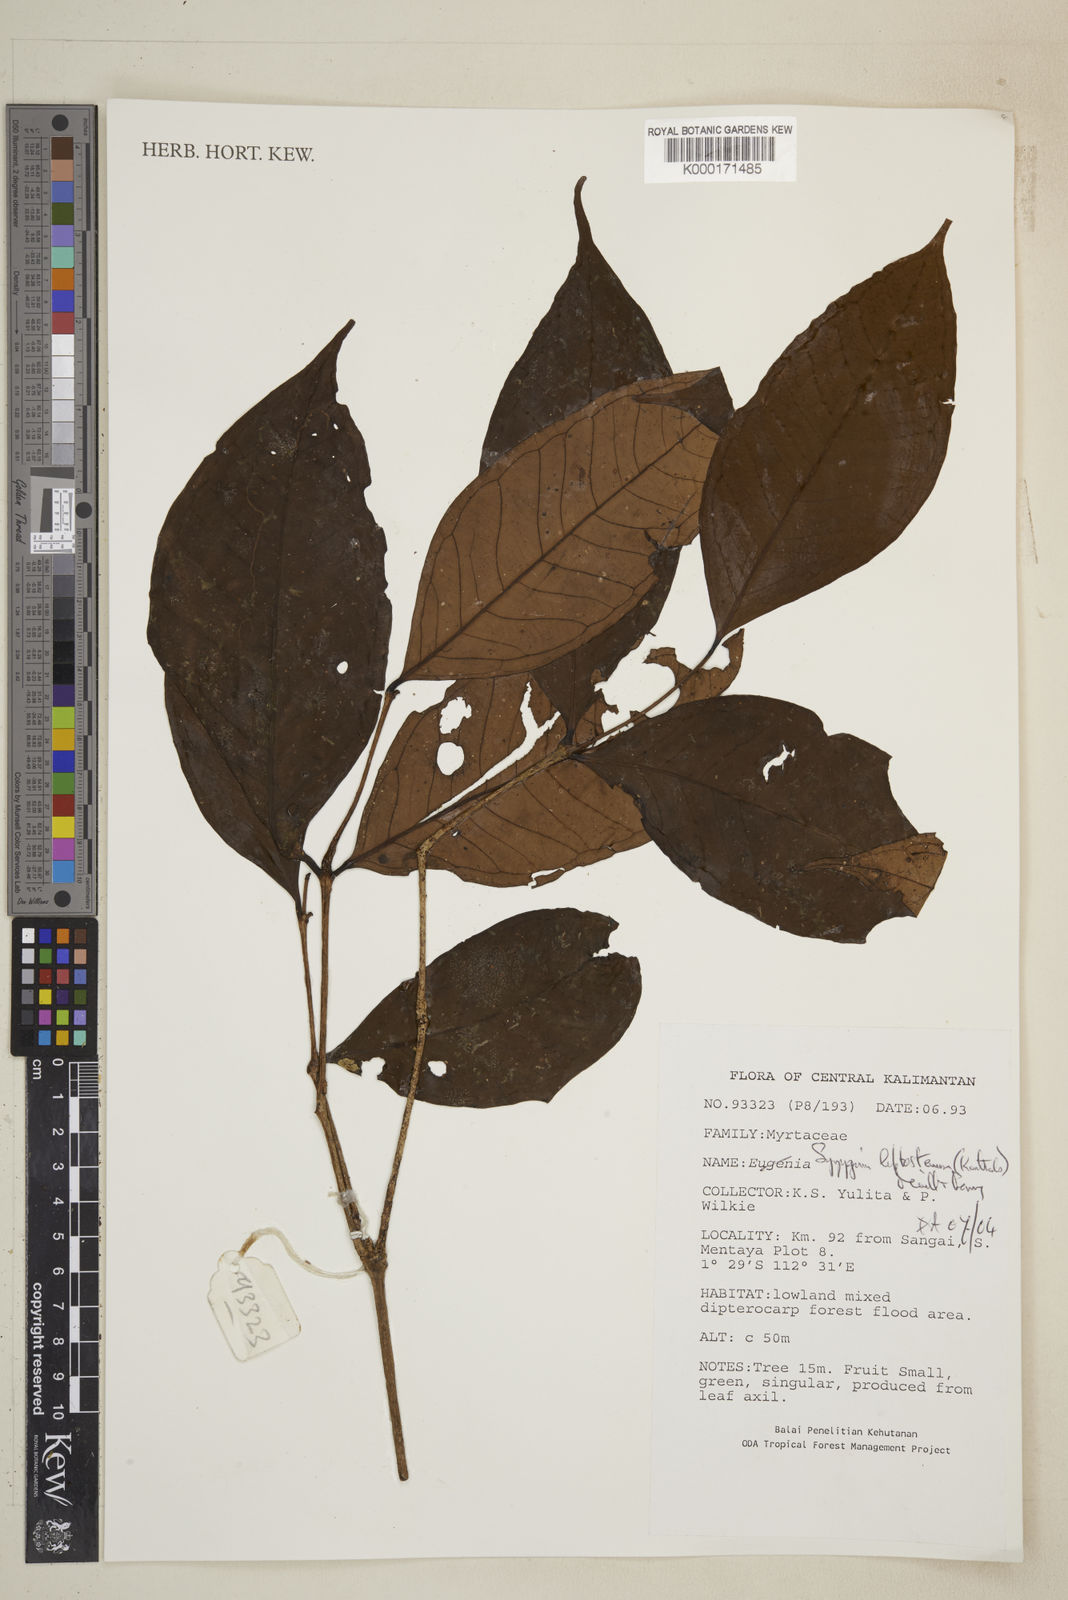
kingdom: Plantae
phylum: Tracheophyta
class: Magnoliopsida
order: Myrtales
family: Myrtaceae
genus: Syzygium
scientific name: Syzygium urceolatum
